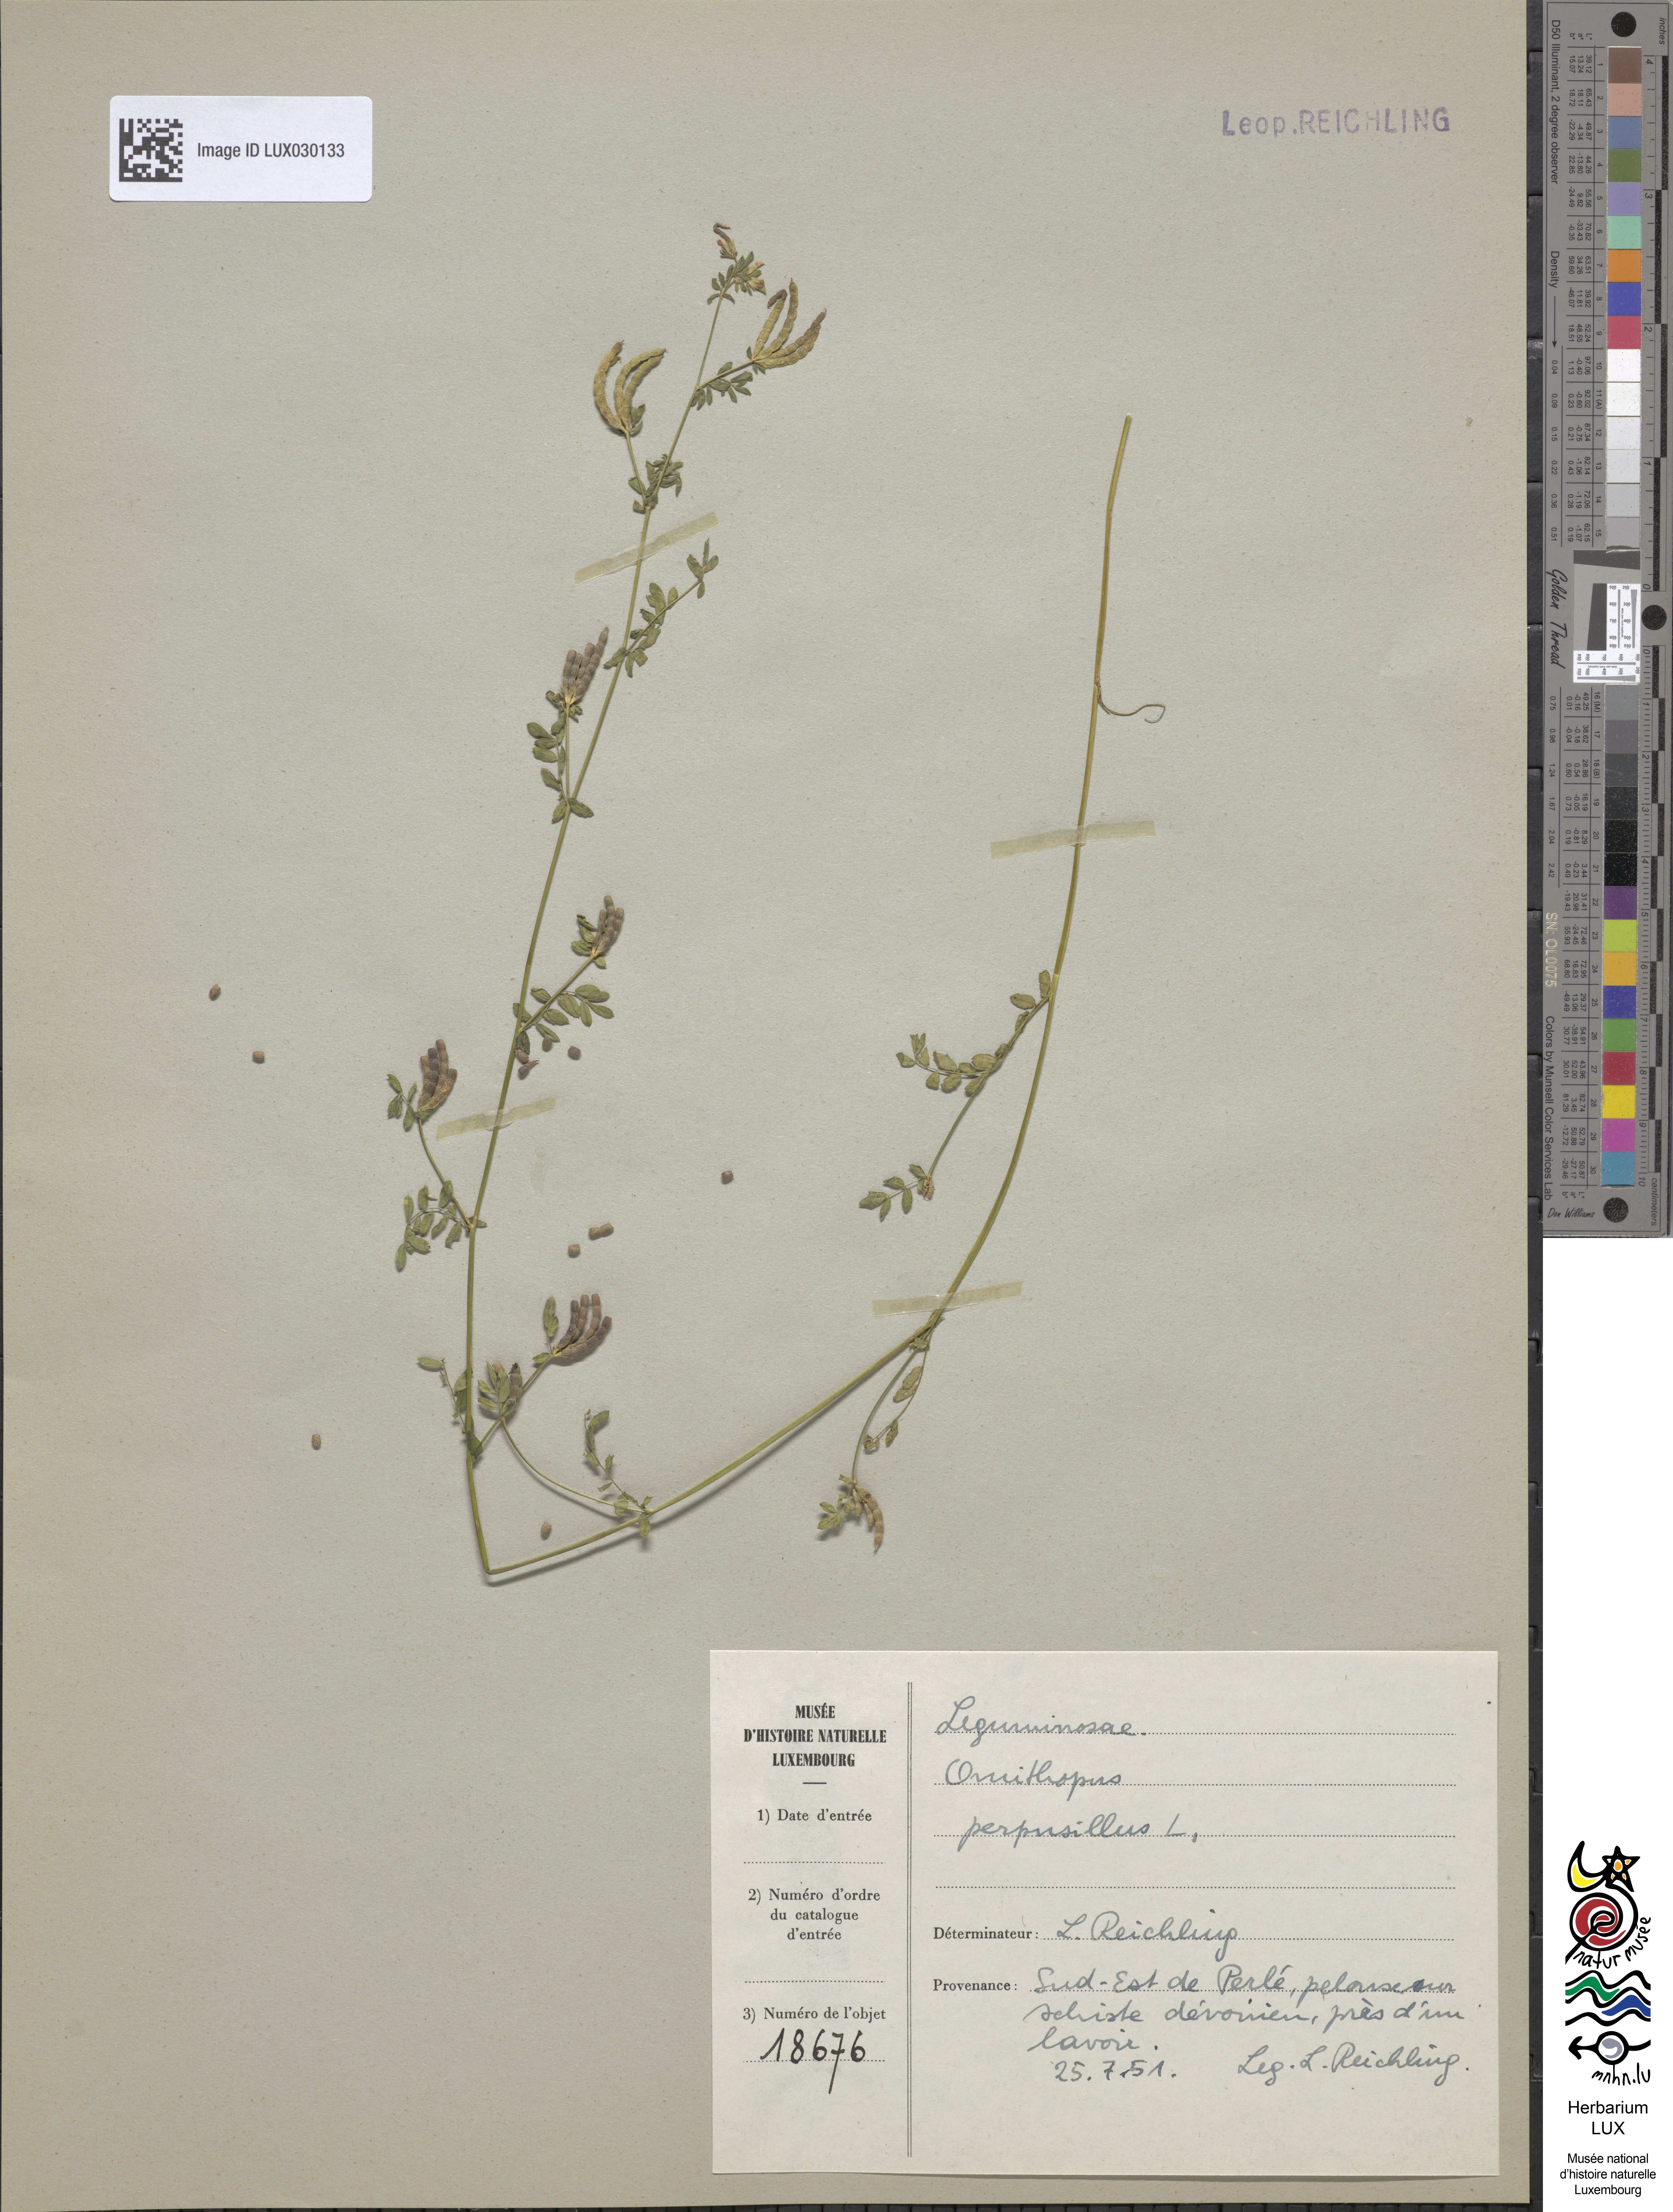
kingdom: Plantae
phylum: Tracheophyta
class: Magnoliopsida
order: Fabales
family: Fabaceae
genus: Ornithopus
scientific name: Ornithopus perpusillus
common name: Bird's-foot
